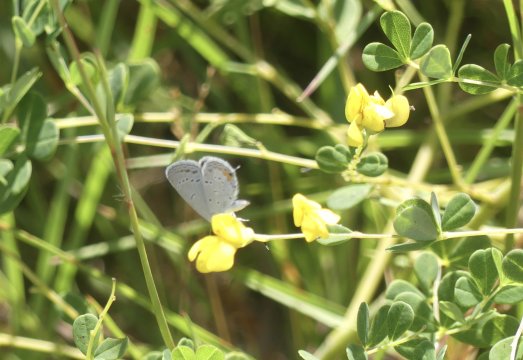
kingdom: Animalia
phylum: Arthropoda
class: Insecta
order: Lepidoptera
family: Lycaenidae
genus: Elkalyce
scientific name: Elkalyce comyntas
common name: Eastern Tailed-Blue
